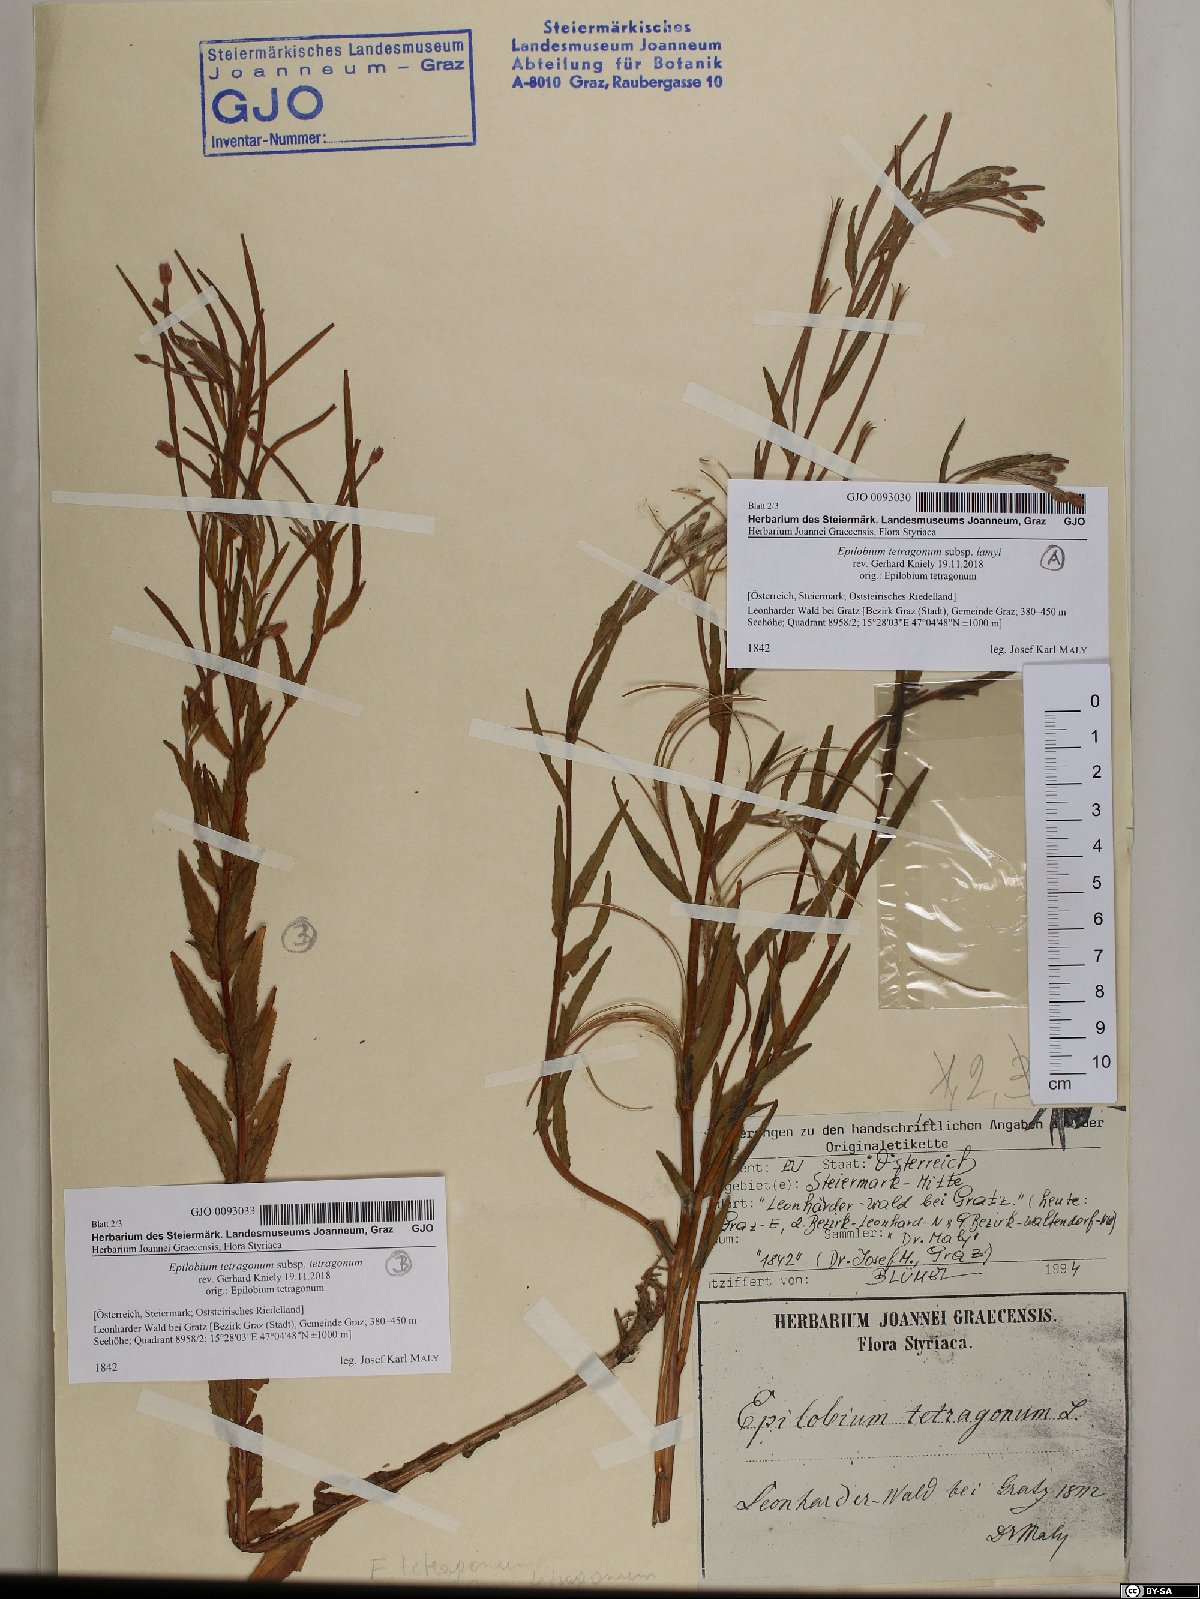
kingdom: Plantae
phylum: Tracheophyta
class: Magnoliopsida
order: Myrtales
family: Onagraceae
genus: Epilobium
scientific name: Epilobium lamyi
